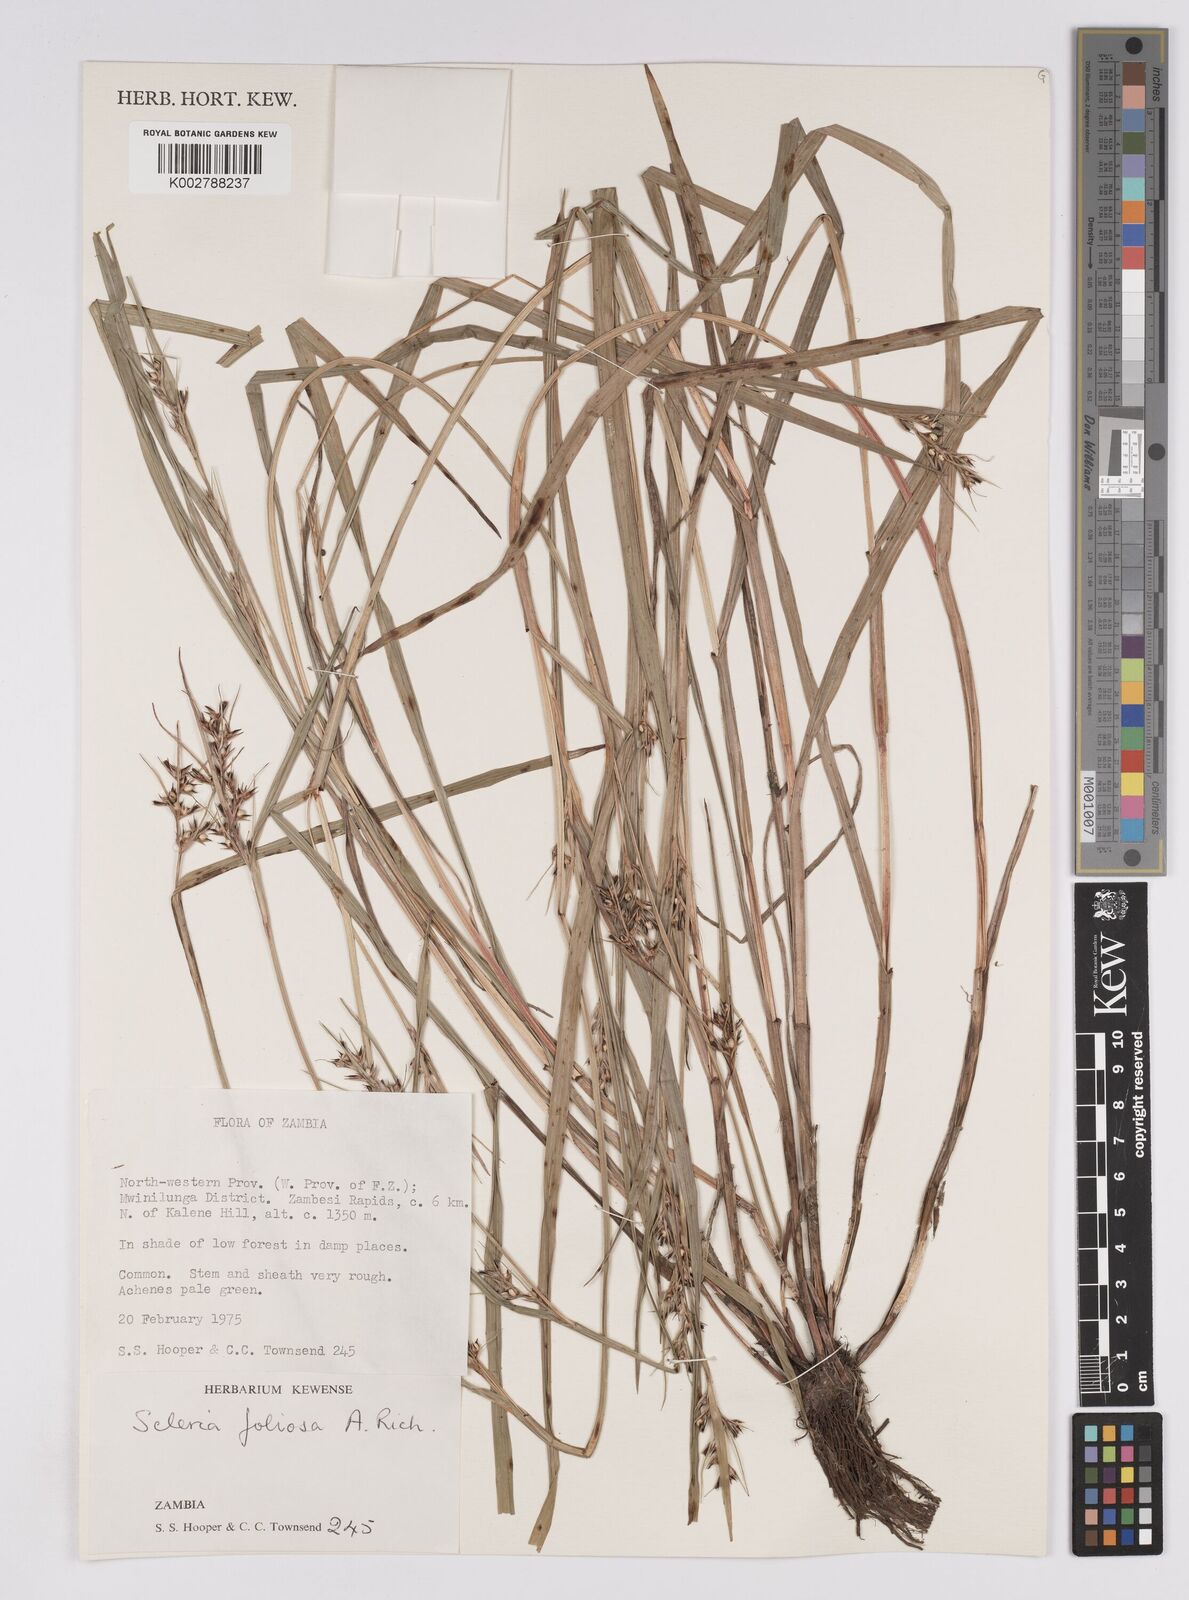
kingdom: Plantae
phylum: Tracheophyta
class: Liliopsida
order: Poales
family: Cyperaceae
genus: Scleria
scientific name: Scleria foliosa
